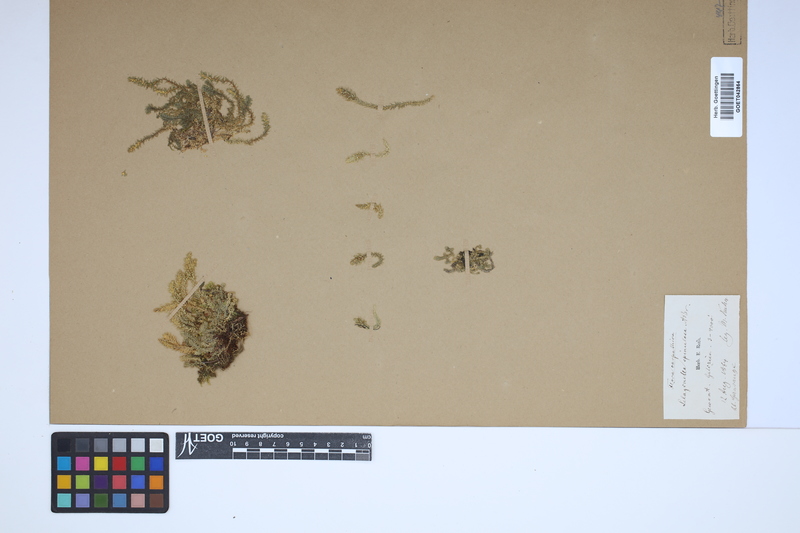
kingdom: Plantae
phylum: Tracheophyta
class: Lycopodiopsida
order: Selaginellales
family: Selaginellaceae
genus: Selaginella
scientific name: Selaginella selaginoides
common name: Prickly mountain-moss
